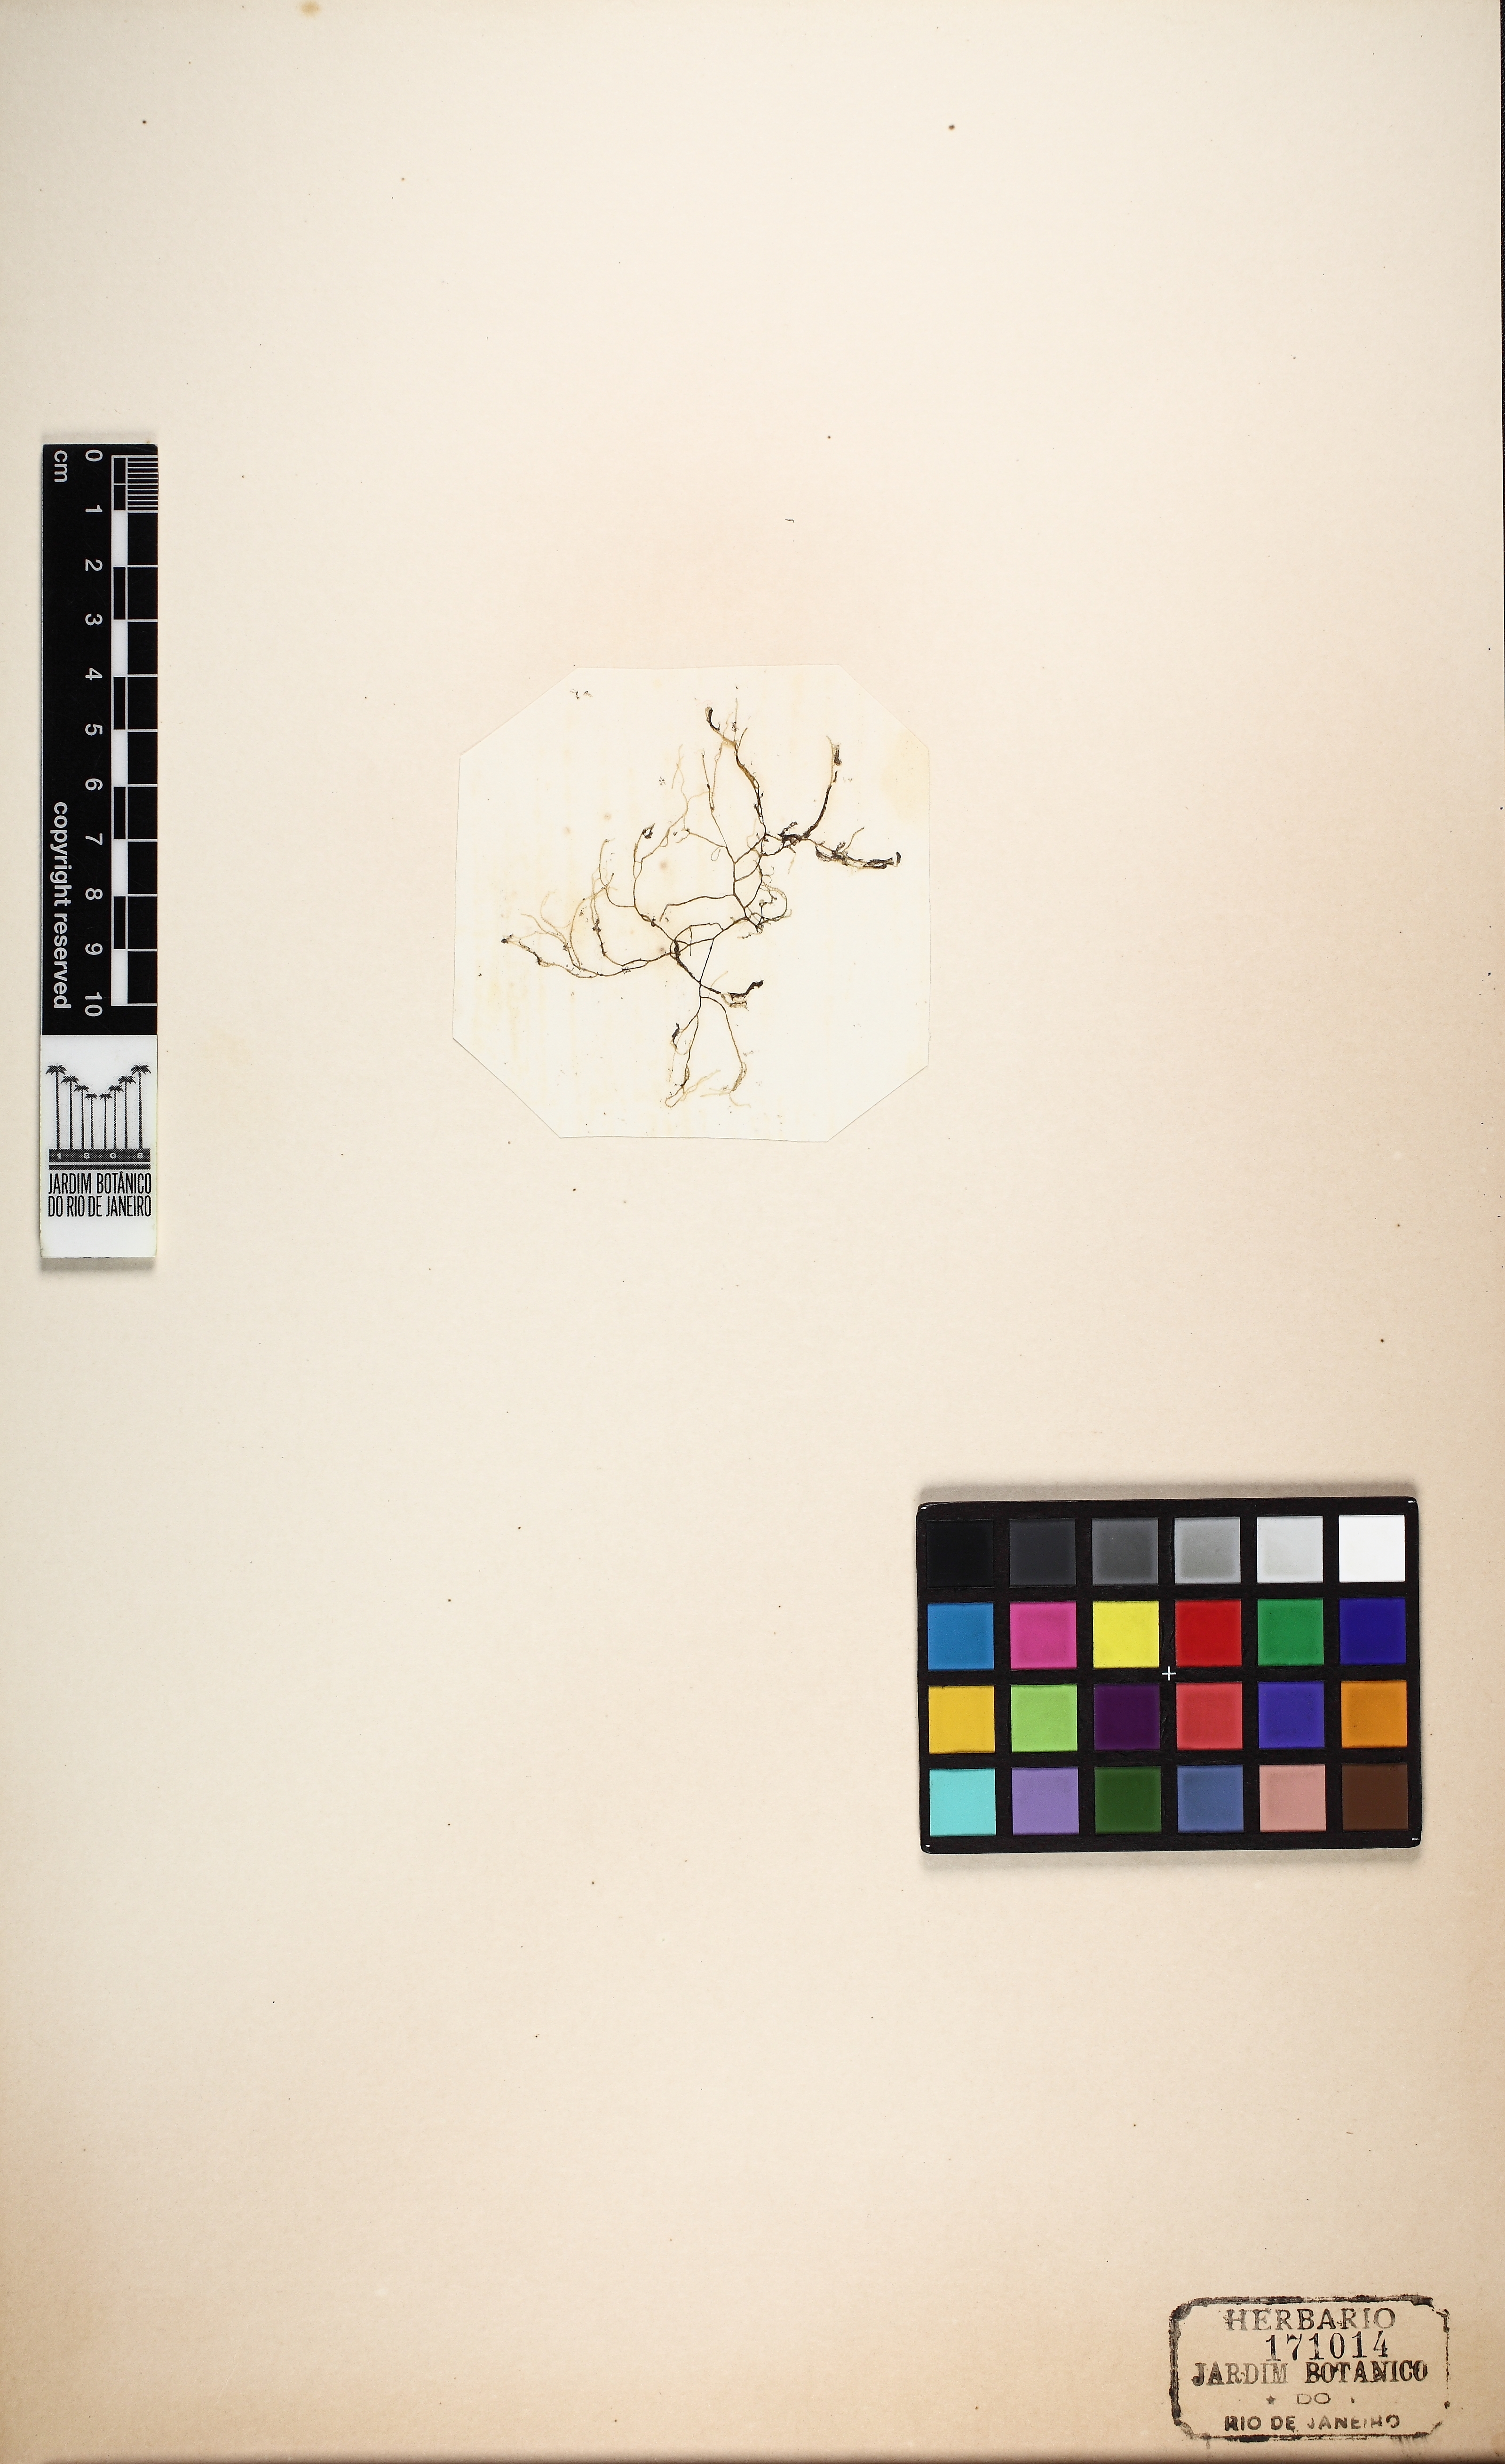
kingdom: Plantae
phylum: Rhodophyta
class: Florideophyceae
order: Batrachospermales
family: Batrachospermaceae
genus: Batrachospermum
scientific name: Batrachospermum
